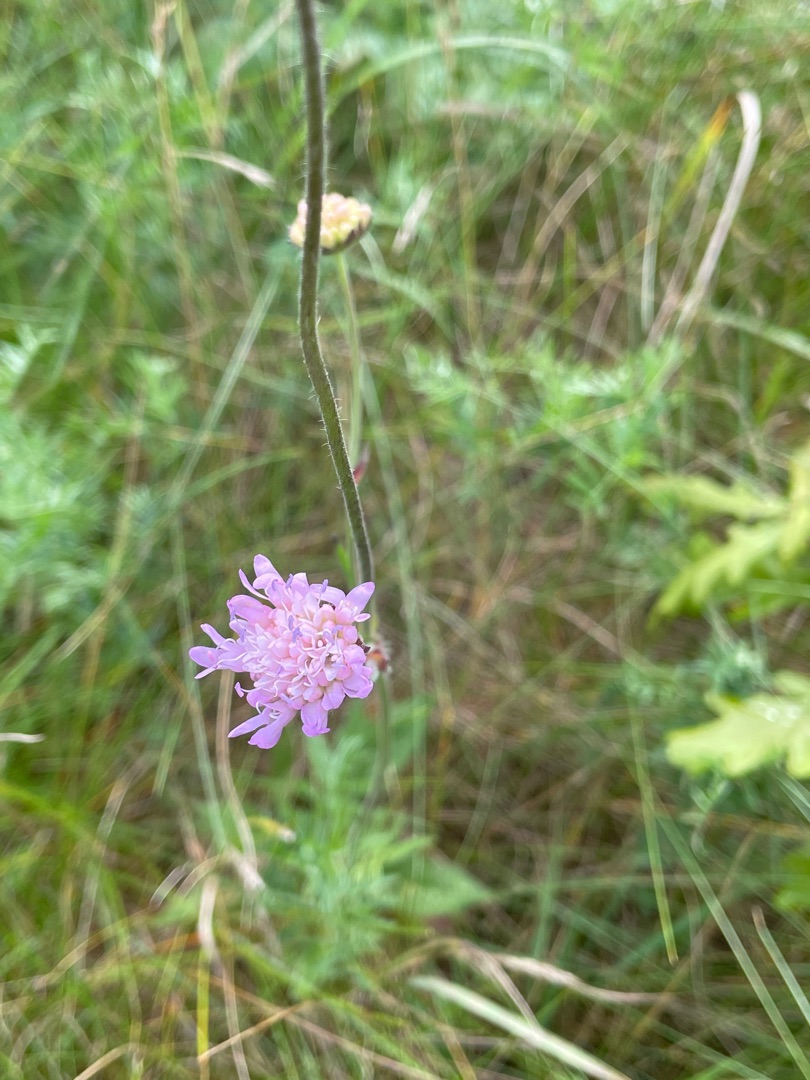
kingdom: Plantae
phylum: Tracheophyta
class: Magnoliopsida
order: Dipsacales
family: Caprifoliaceae
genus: Knautia
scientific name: Knautia arvensis
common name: Blåhat
